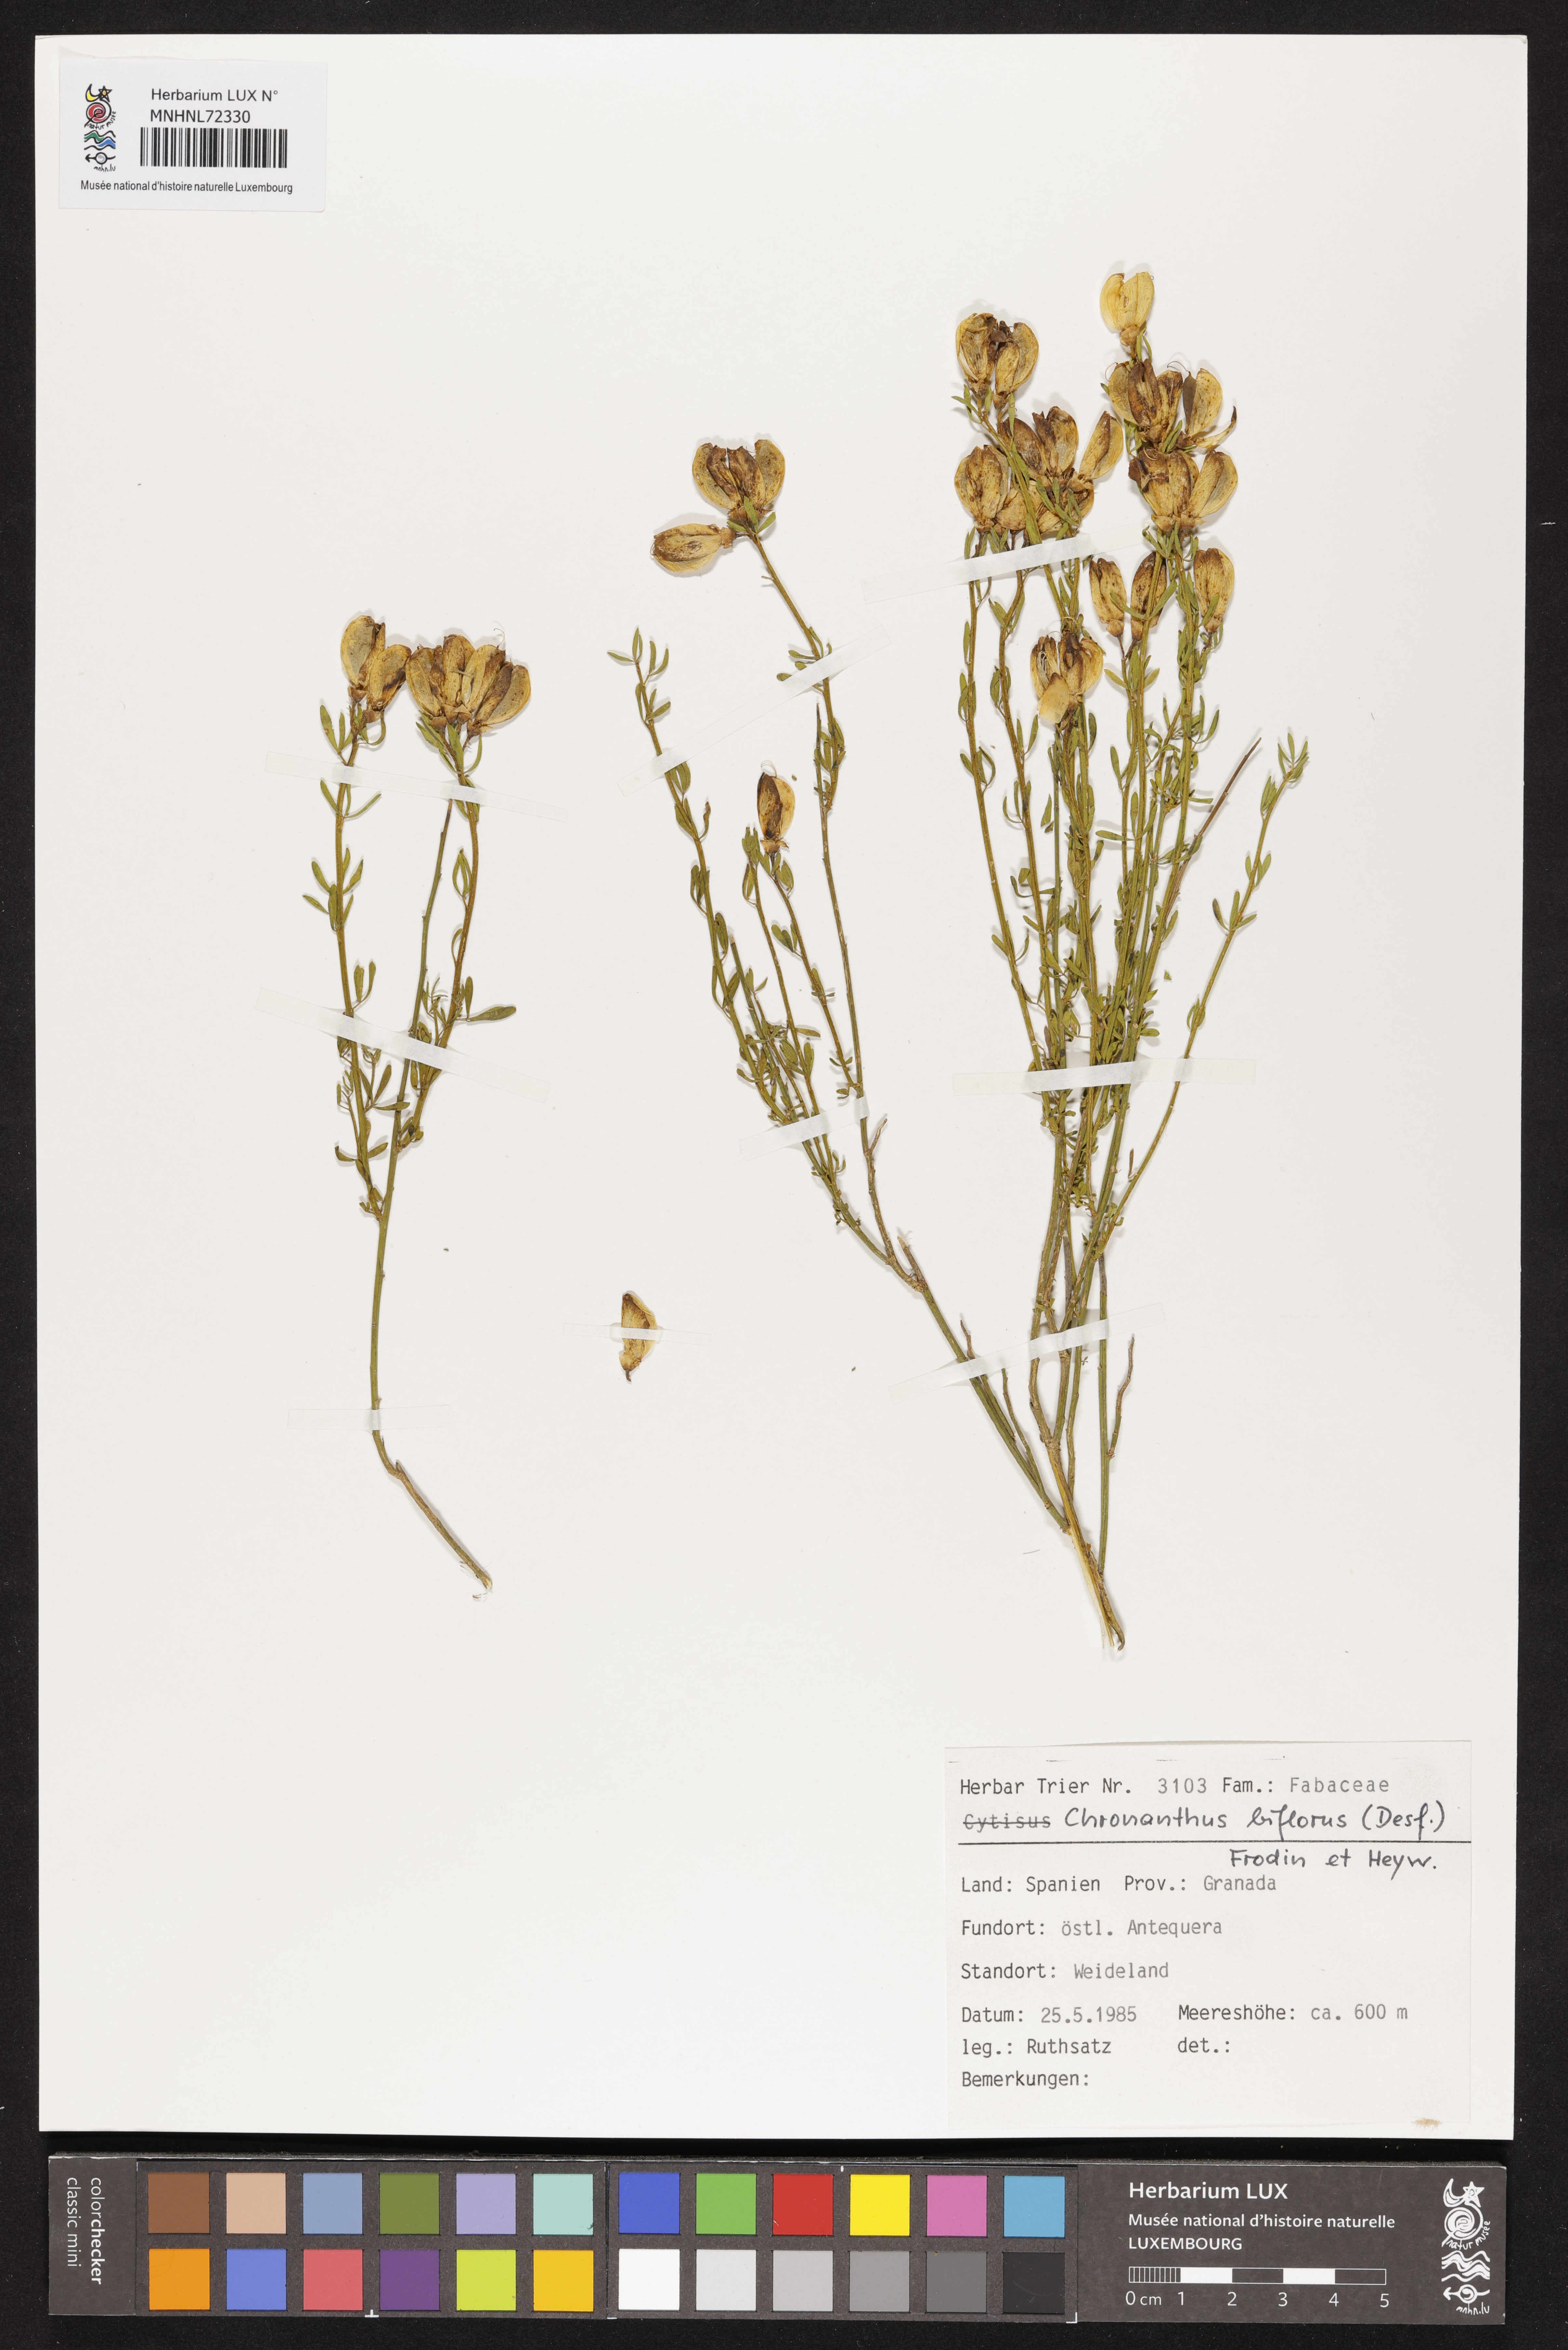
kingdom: Plantae
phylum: Tracheophyta
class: Magnoliopsida
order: Fabales
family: Fabaceae
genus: Cytisus
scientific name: Cytisus fontanesii
